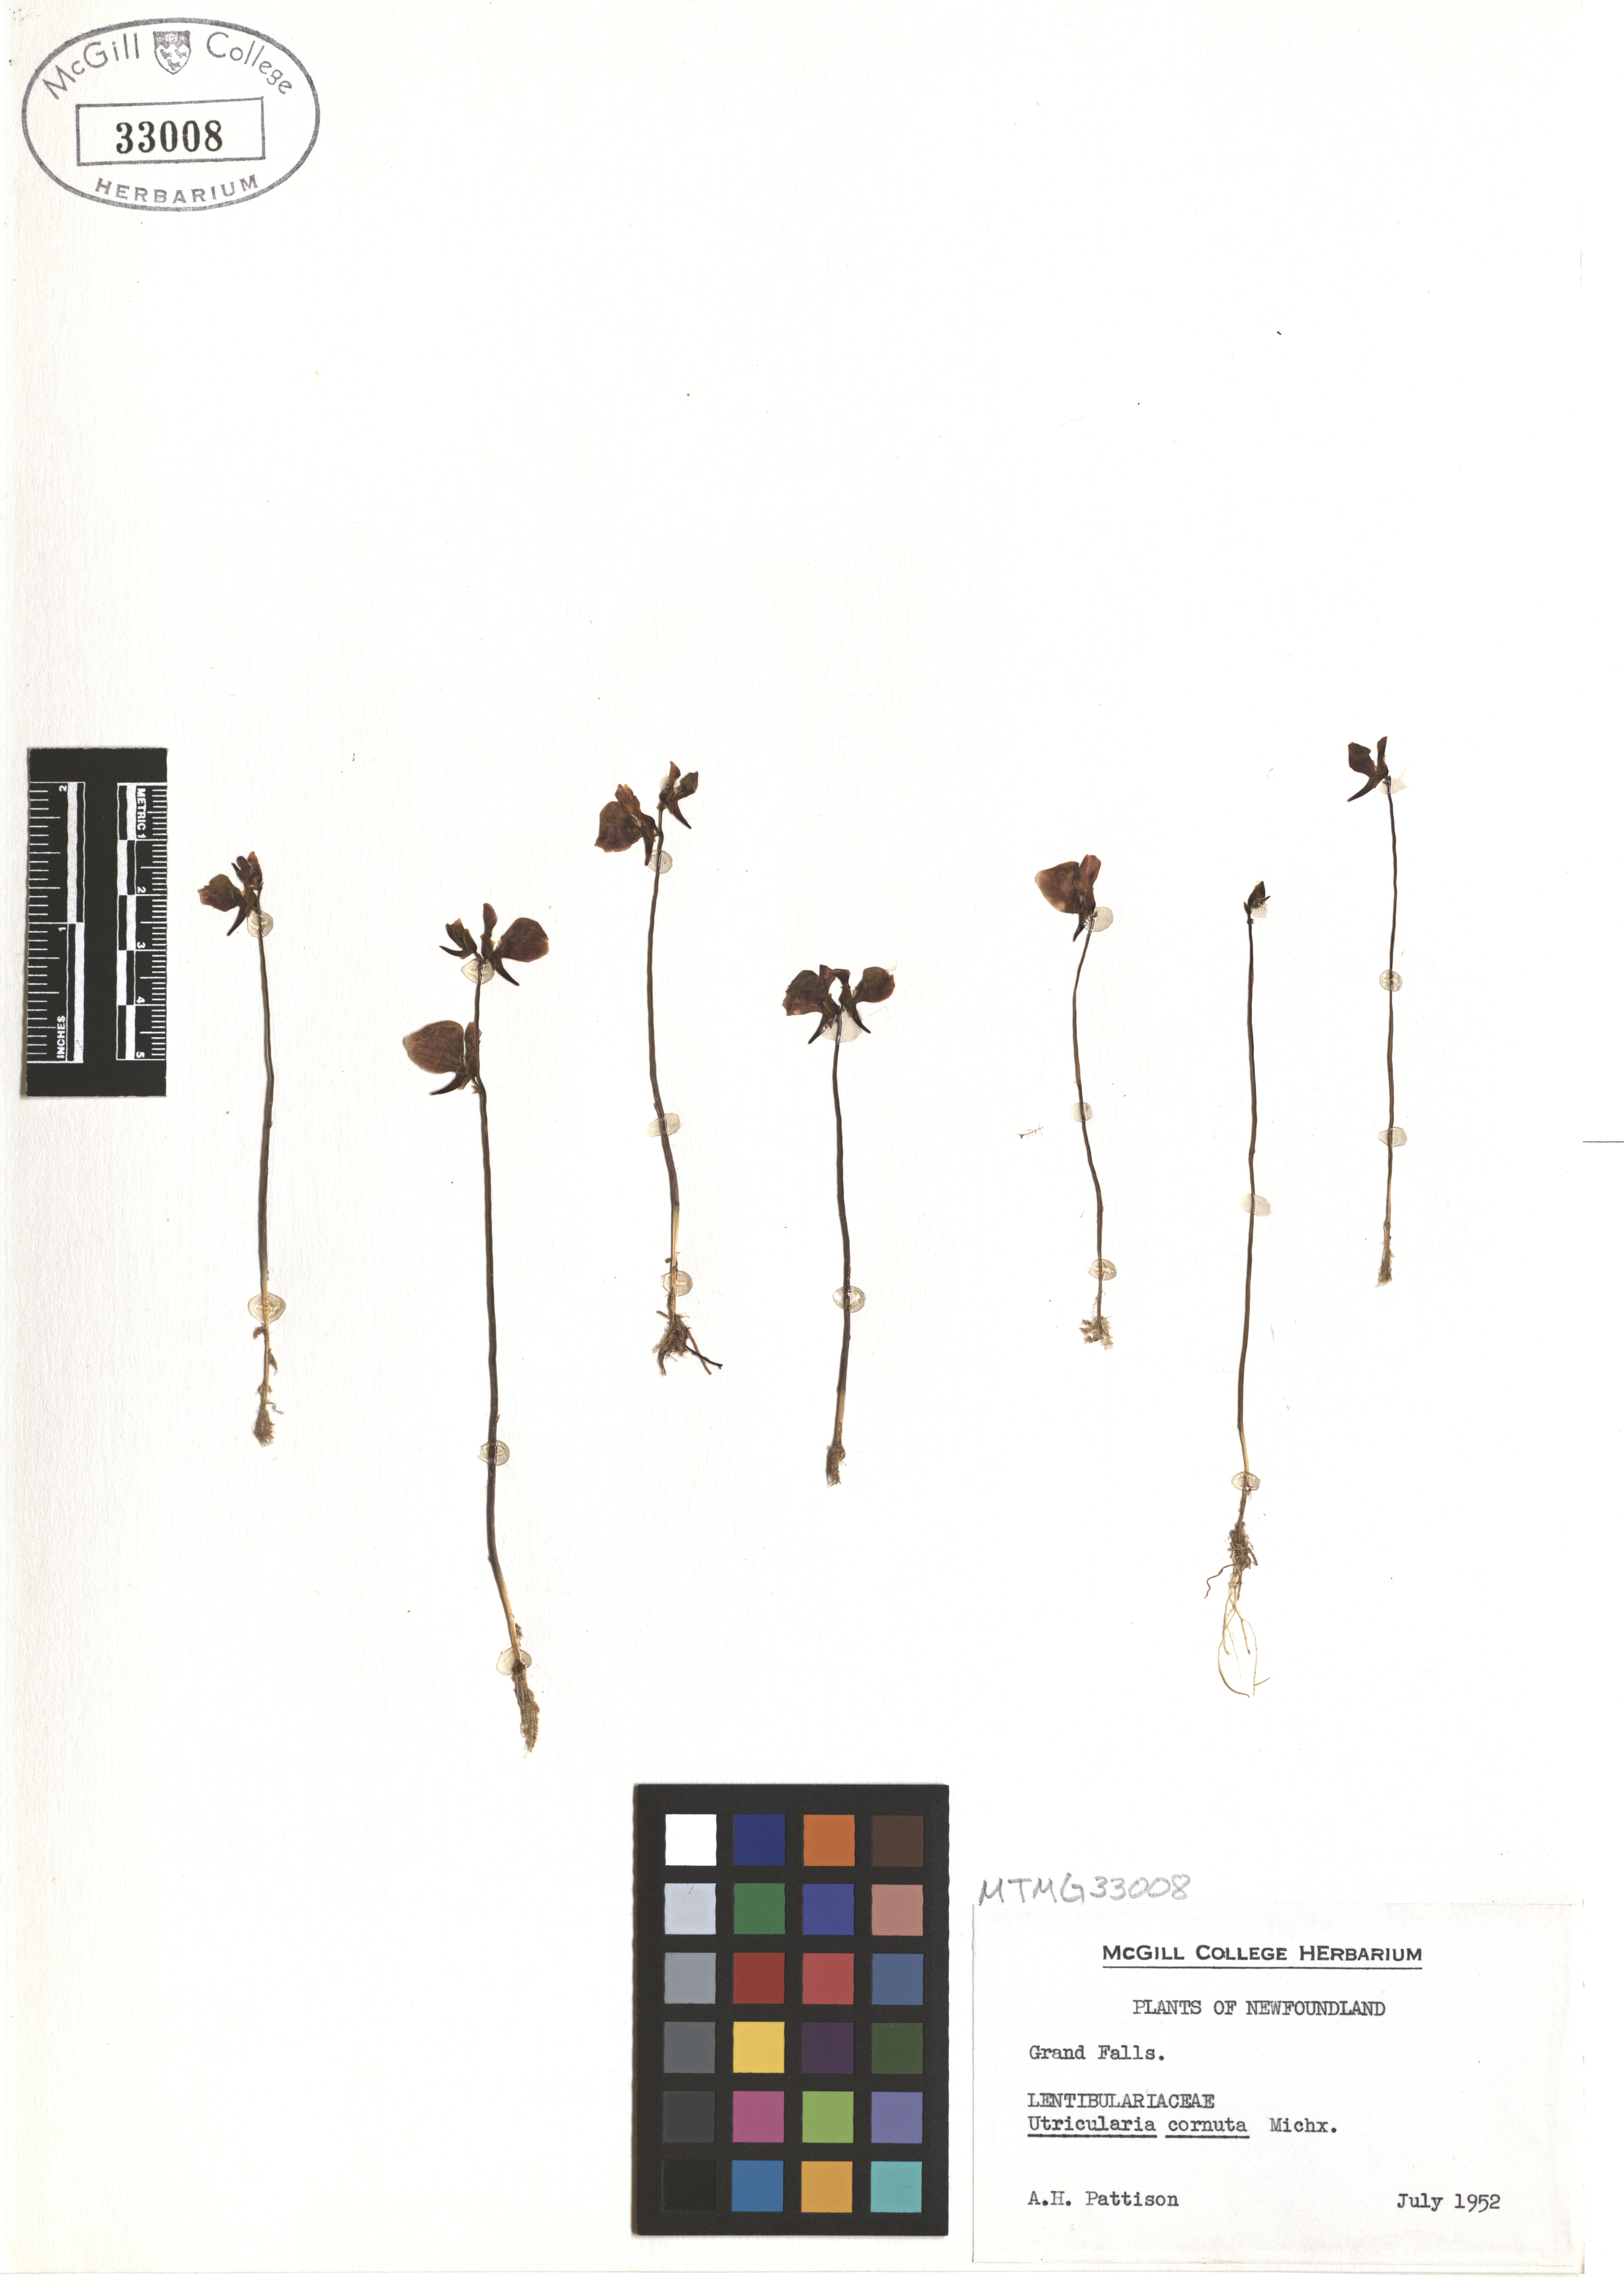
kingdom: Plantae
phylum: Tracheophyta
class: Magnoliopsida
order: Lamiales
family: Lentibulariaceae
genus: Utricularia
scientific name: Utricularia cornuta
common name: Horned bladderwort
